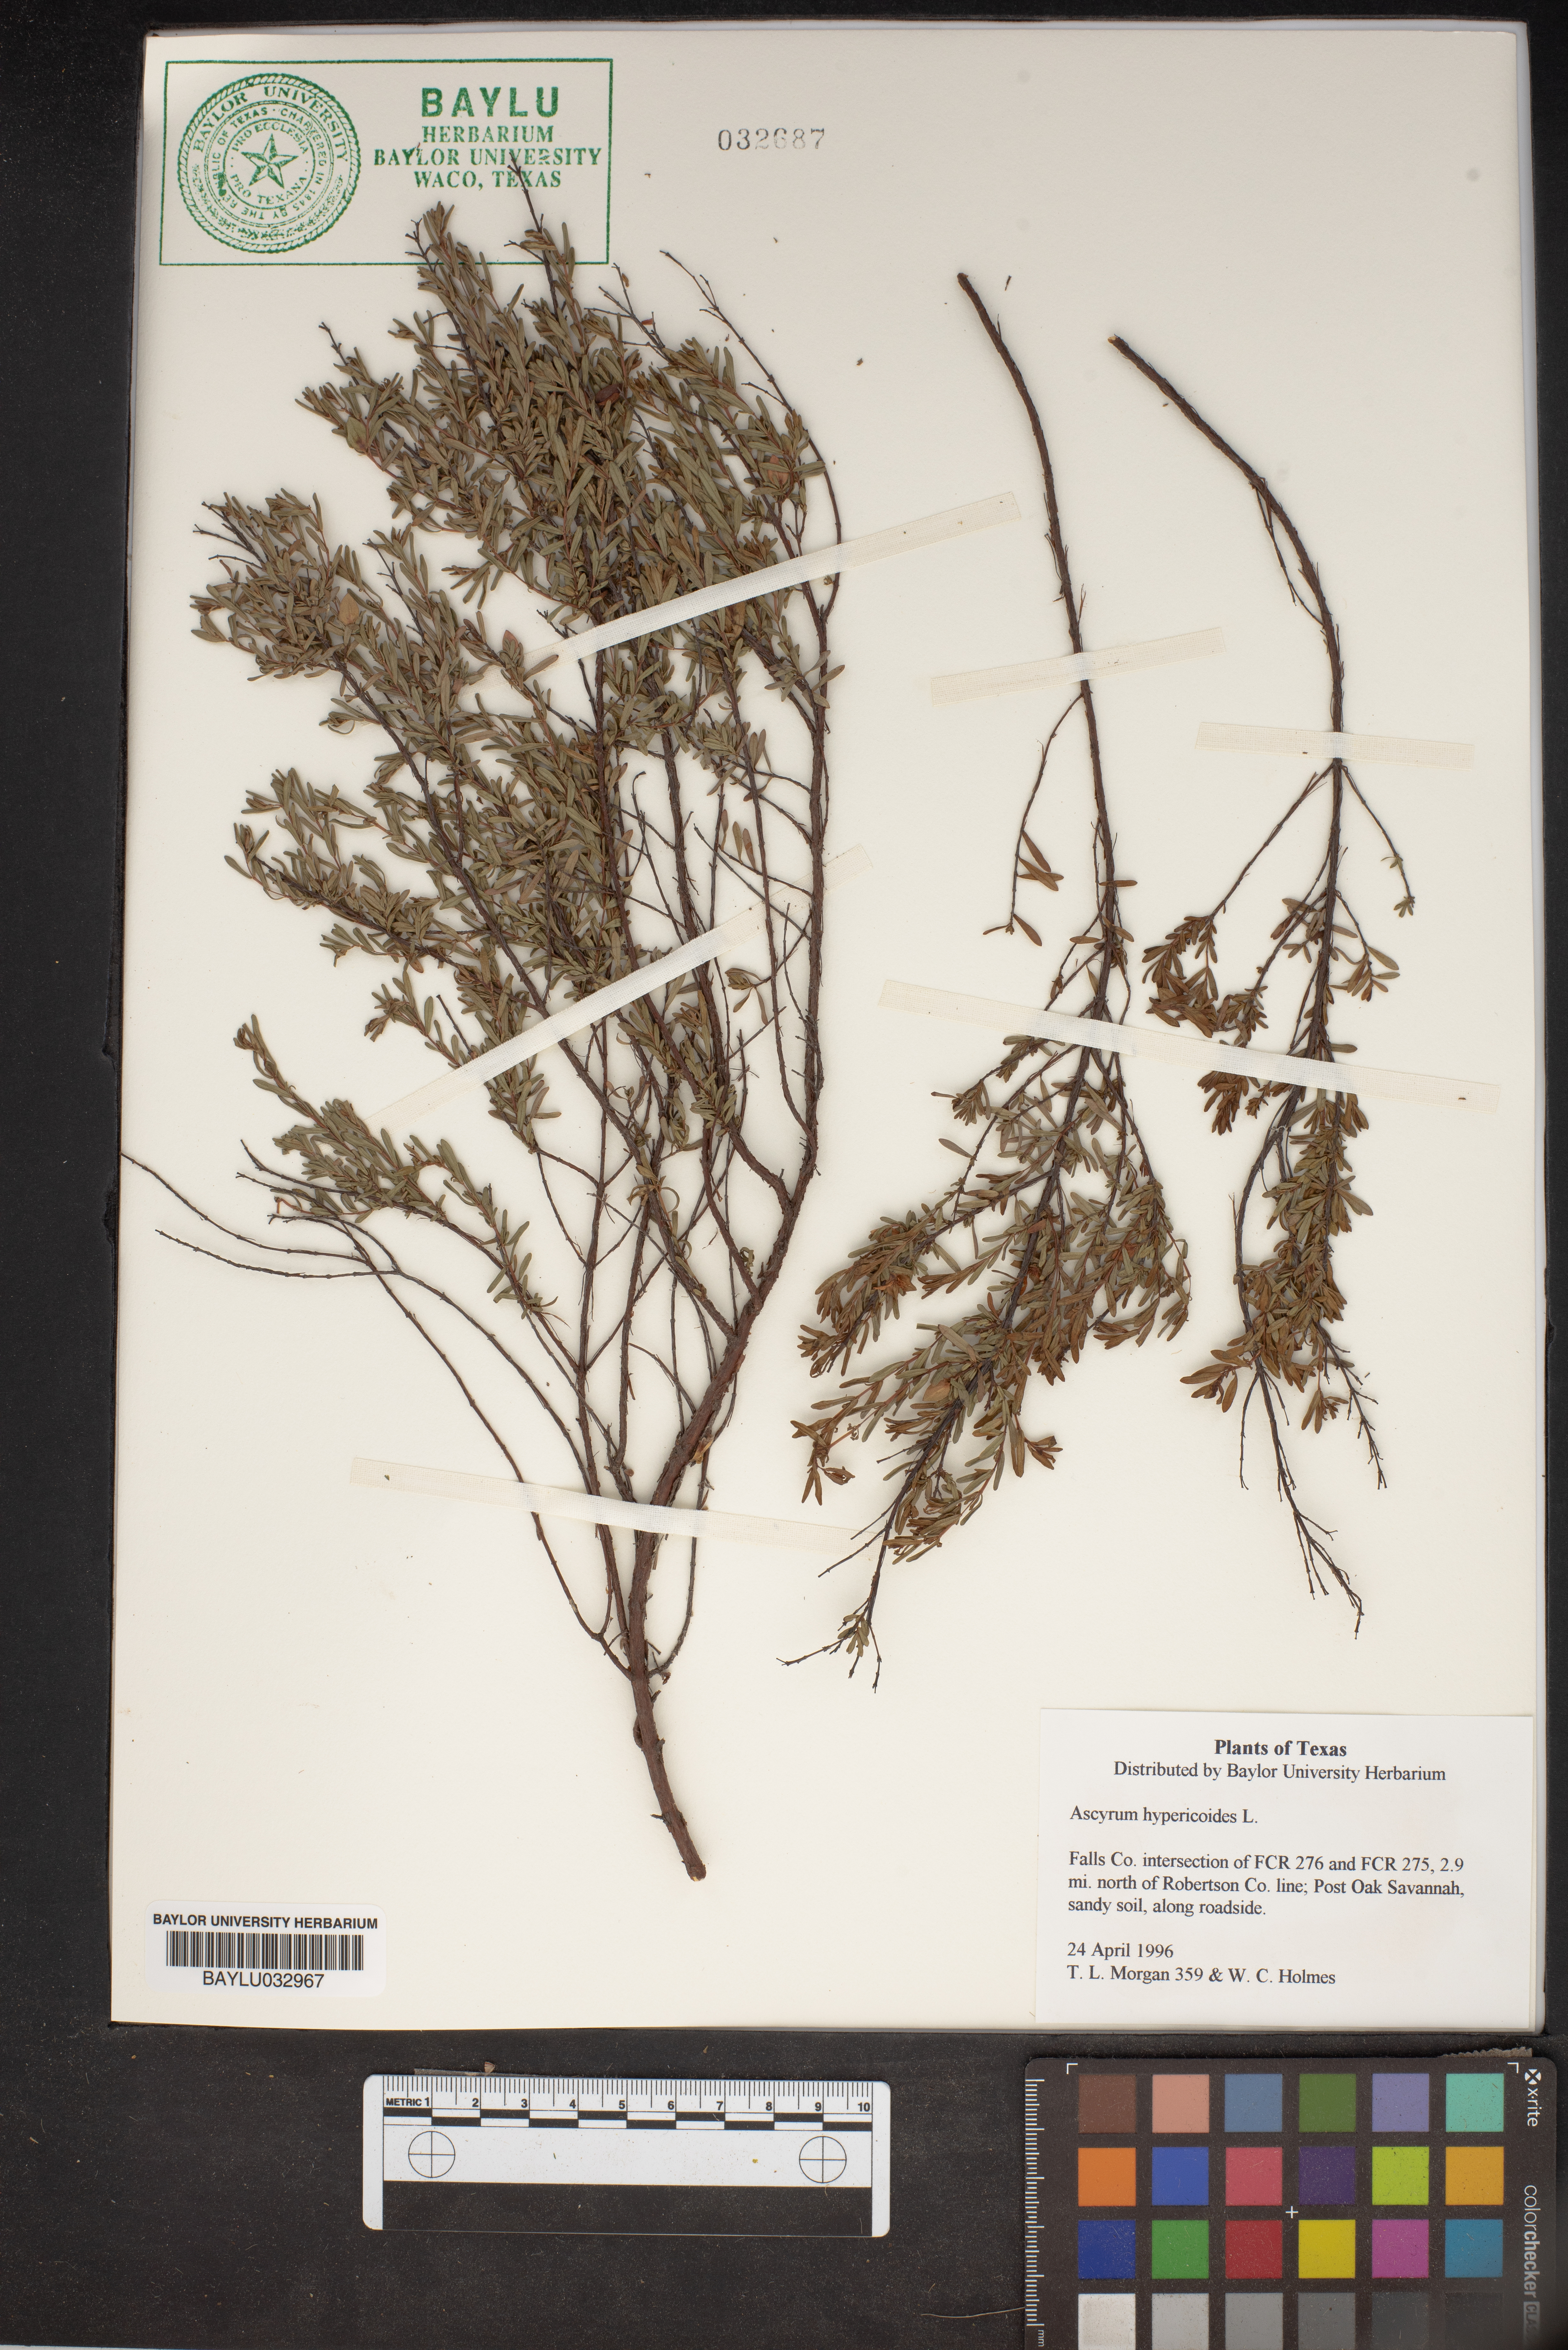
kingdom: Plantae
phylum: Tracheophyta
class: Magnoliopsida
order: Malpighiales
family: Hypericaceae
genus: Hypericum
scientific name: Hypericum hypericoides
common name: St. andrew's cross
